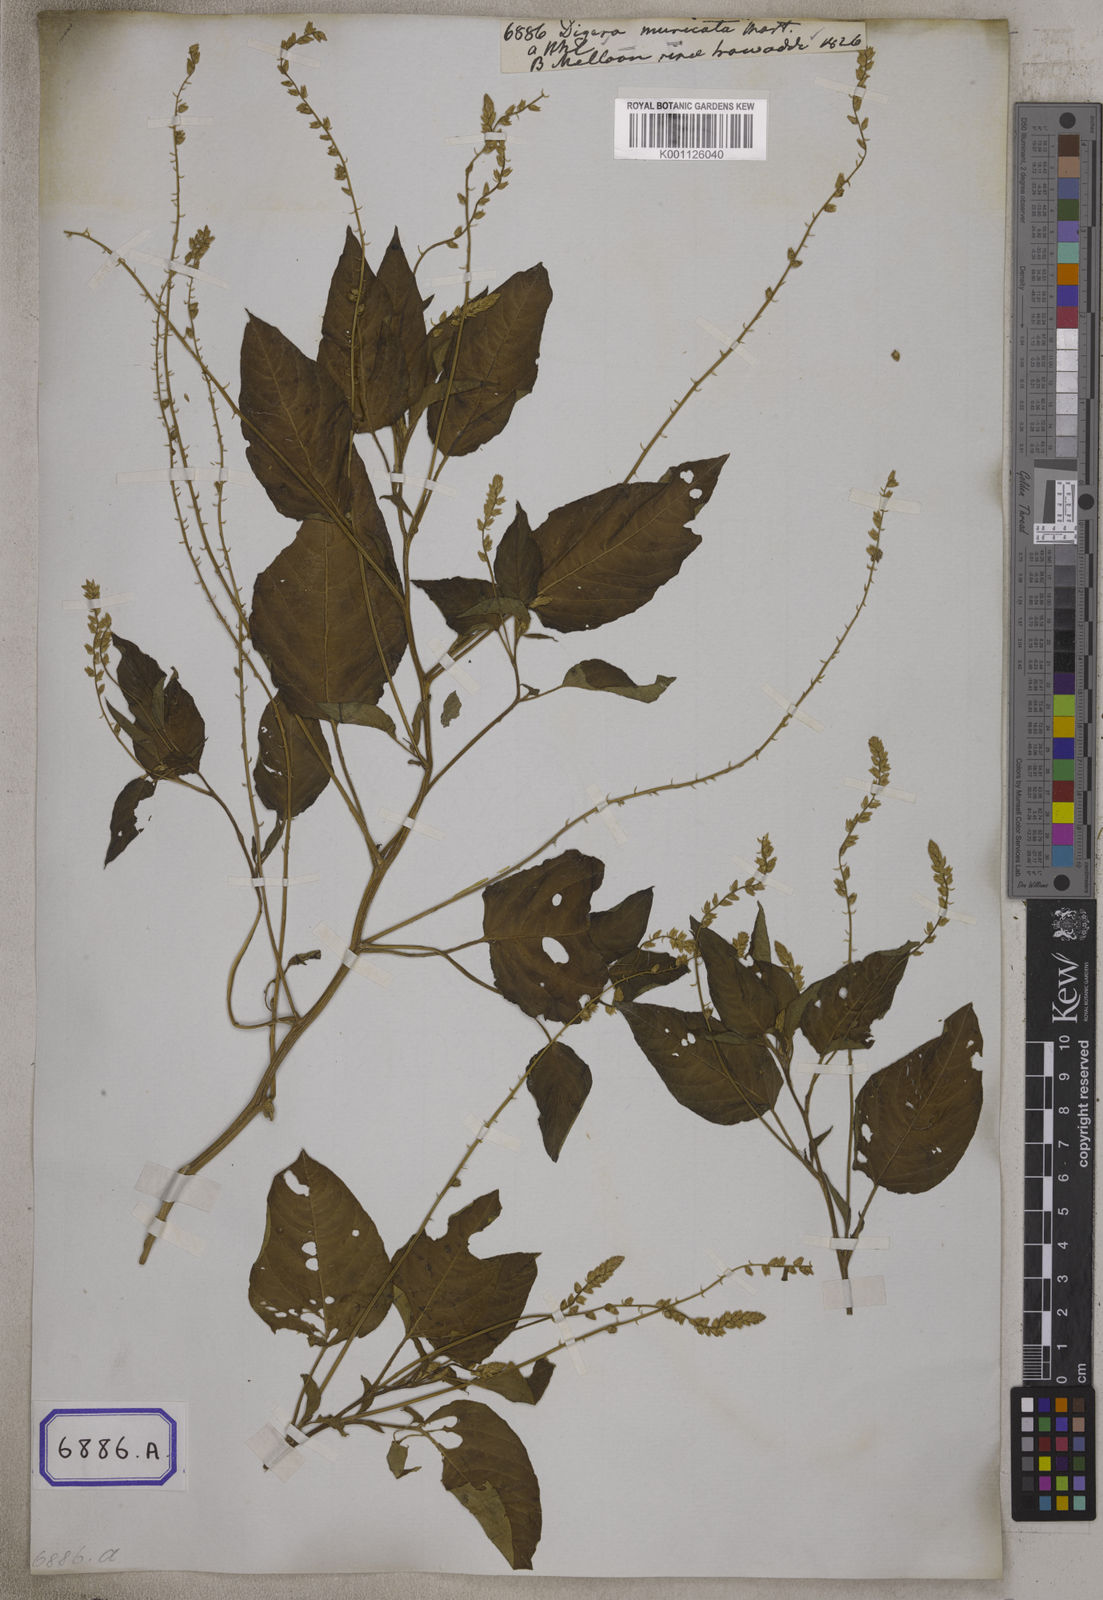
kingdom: Plantae
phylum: Tracheophyta
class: Magnoliopsida
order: Caryophyllales
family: Amaranthaceae
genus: Digera
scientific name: Digera muricata
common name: False amaranth
